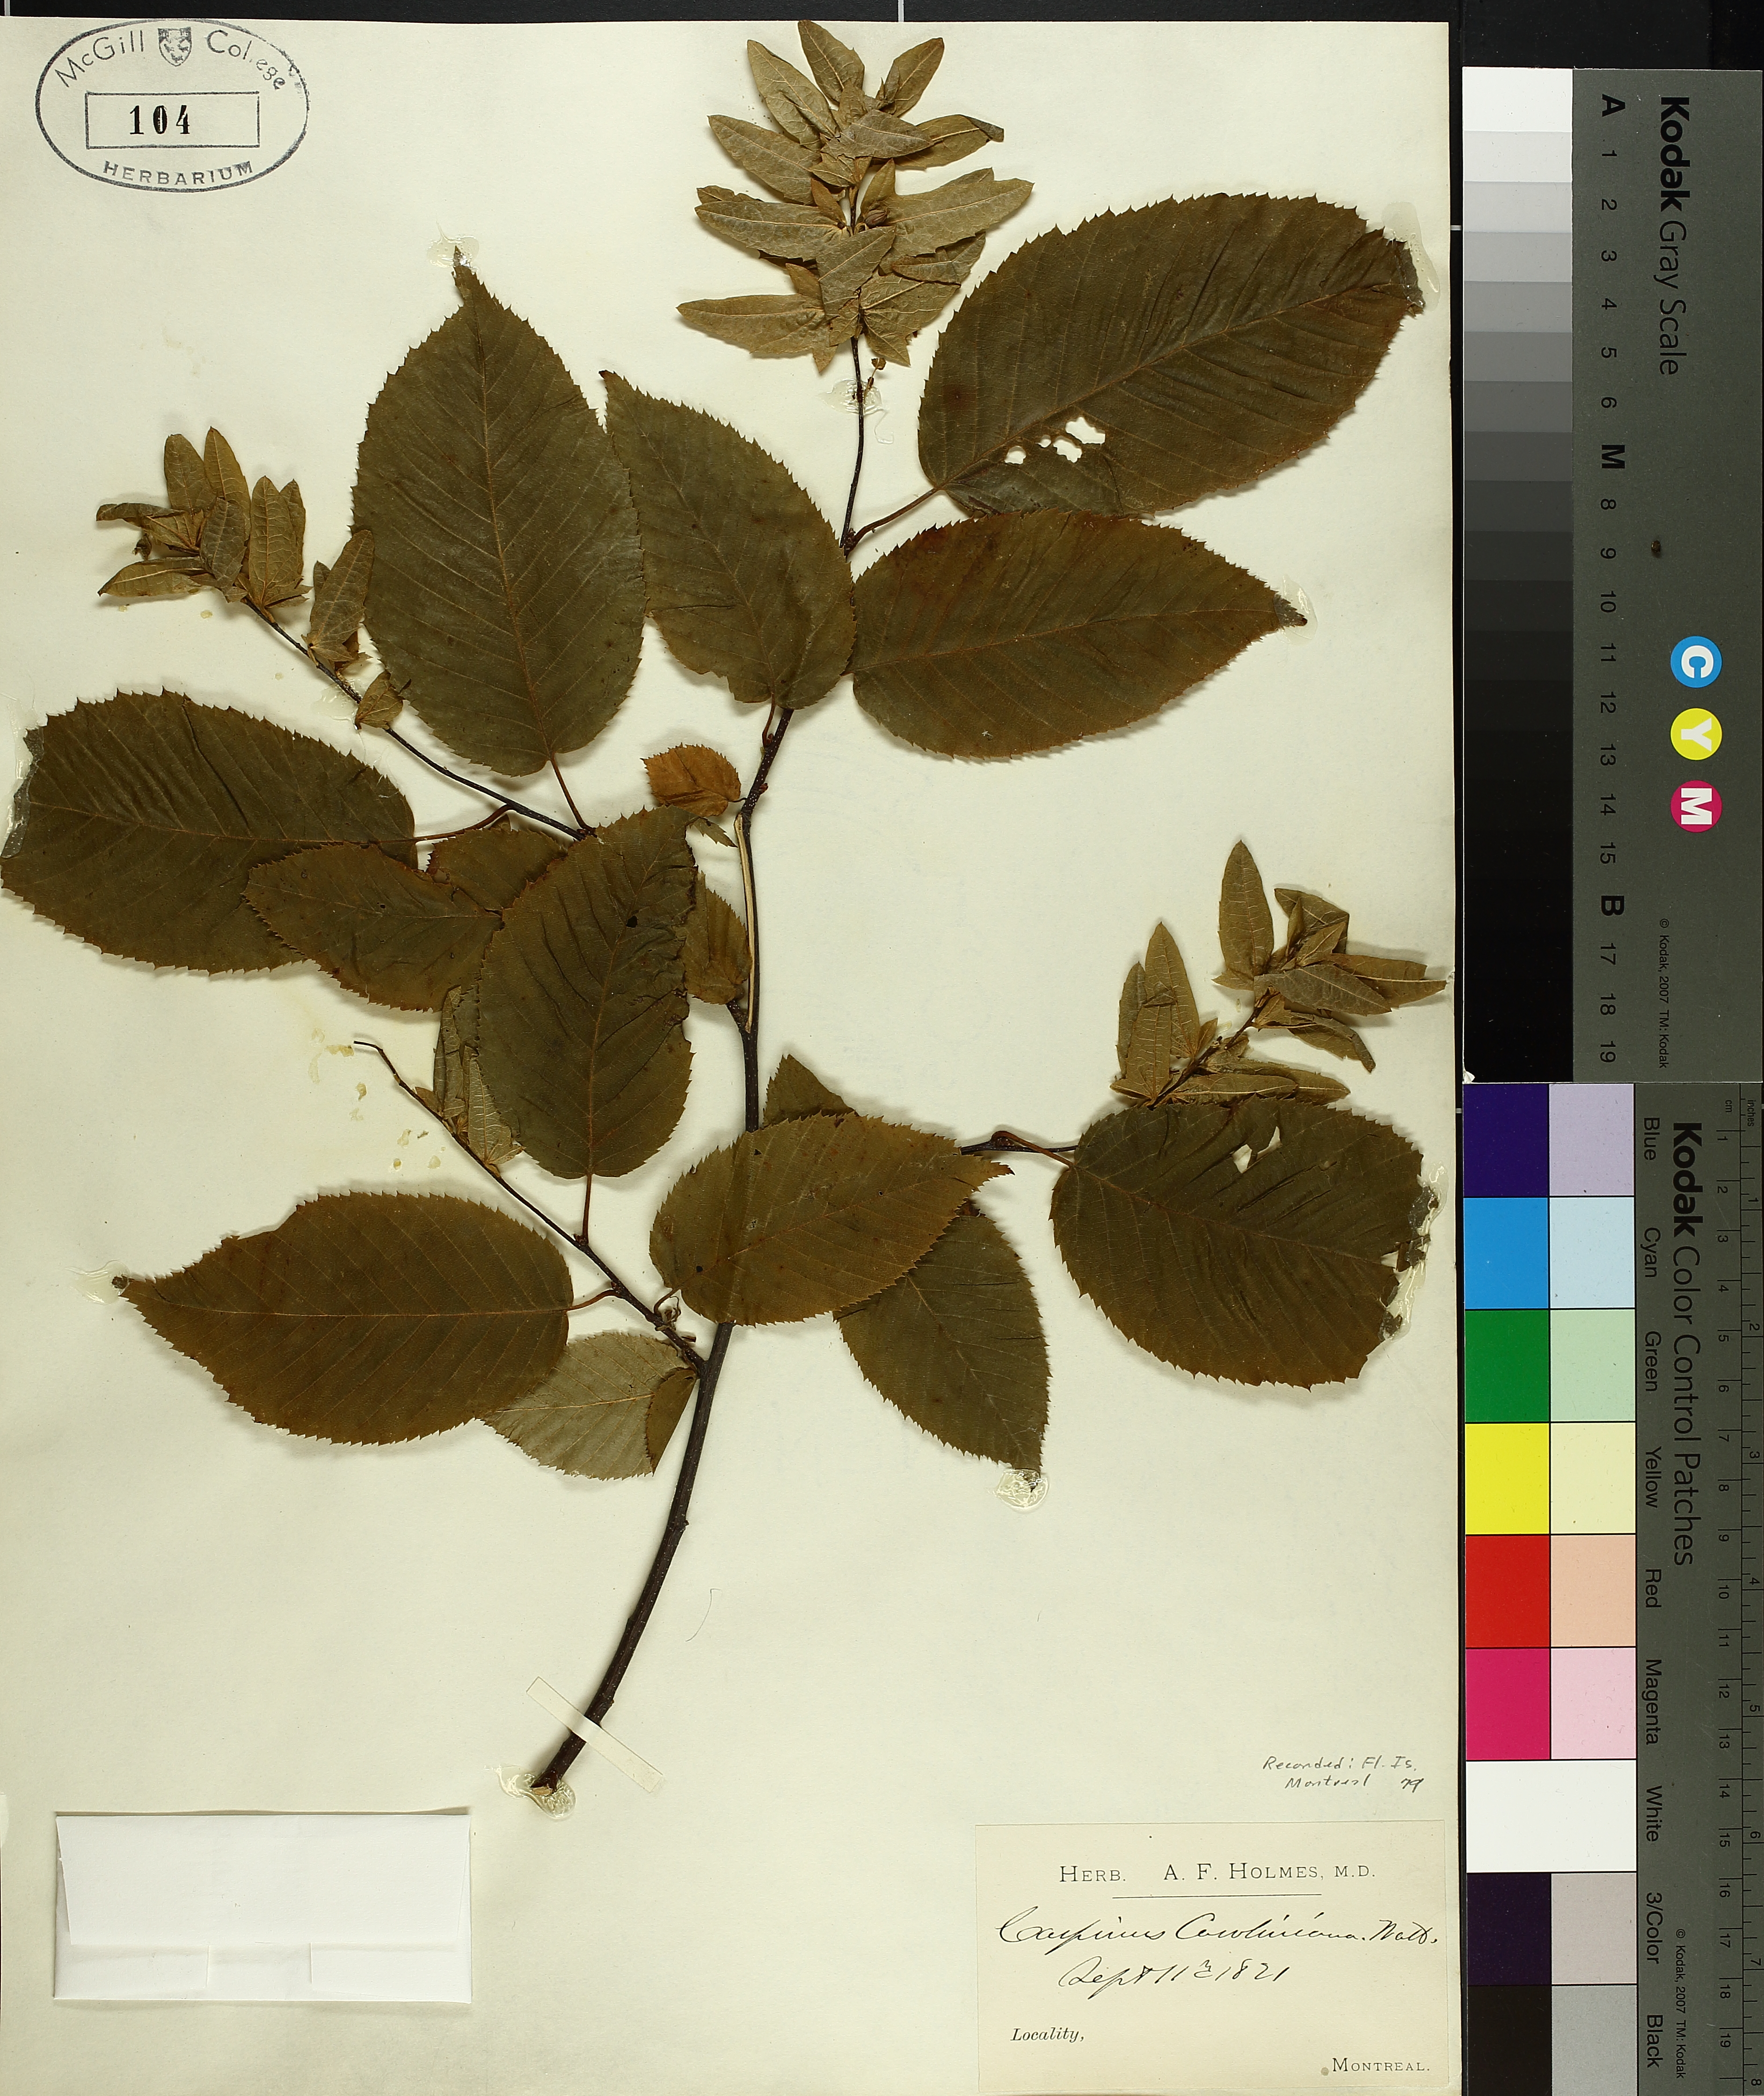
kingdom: Plantae
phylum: Tracheophyta
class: Magnoliopsida
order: Fagales
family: Betulaceae
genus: Carpinus
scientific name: Carpinus caroliniana
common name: American hornbeam
